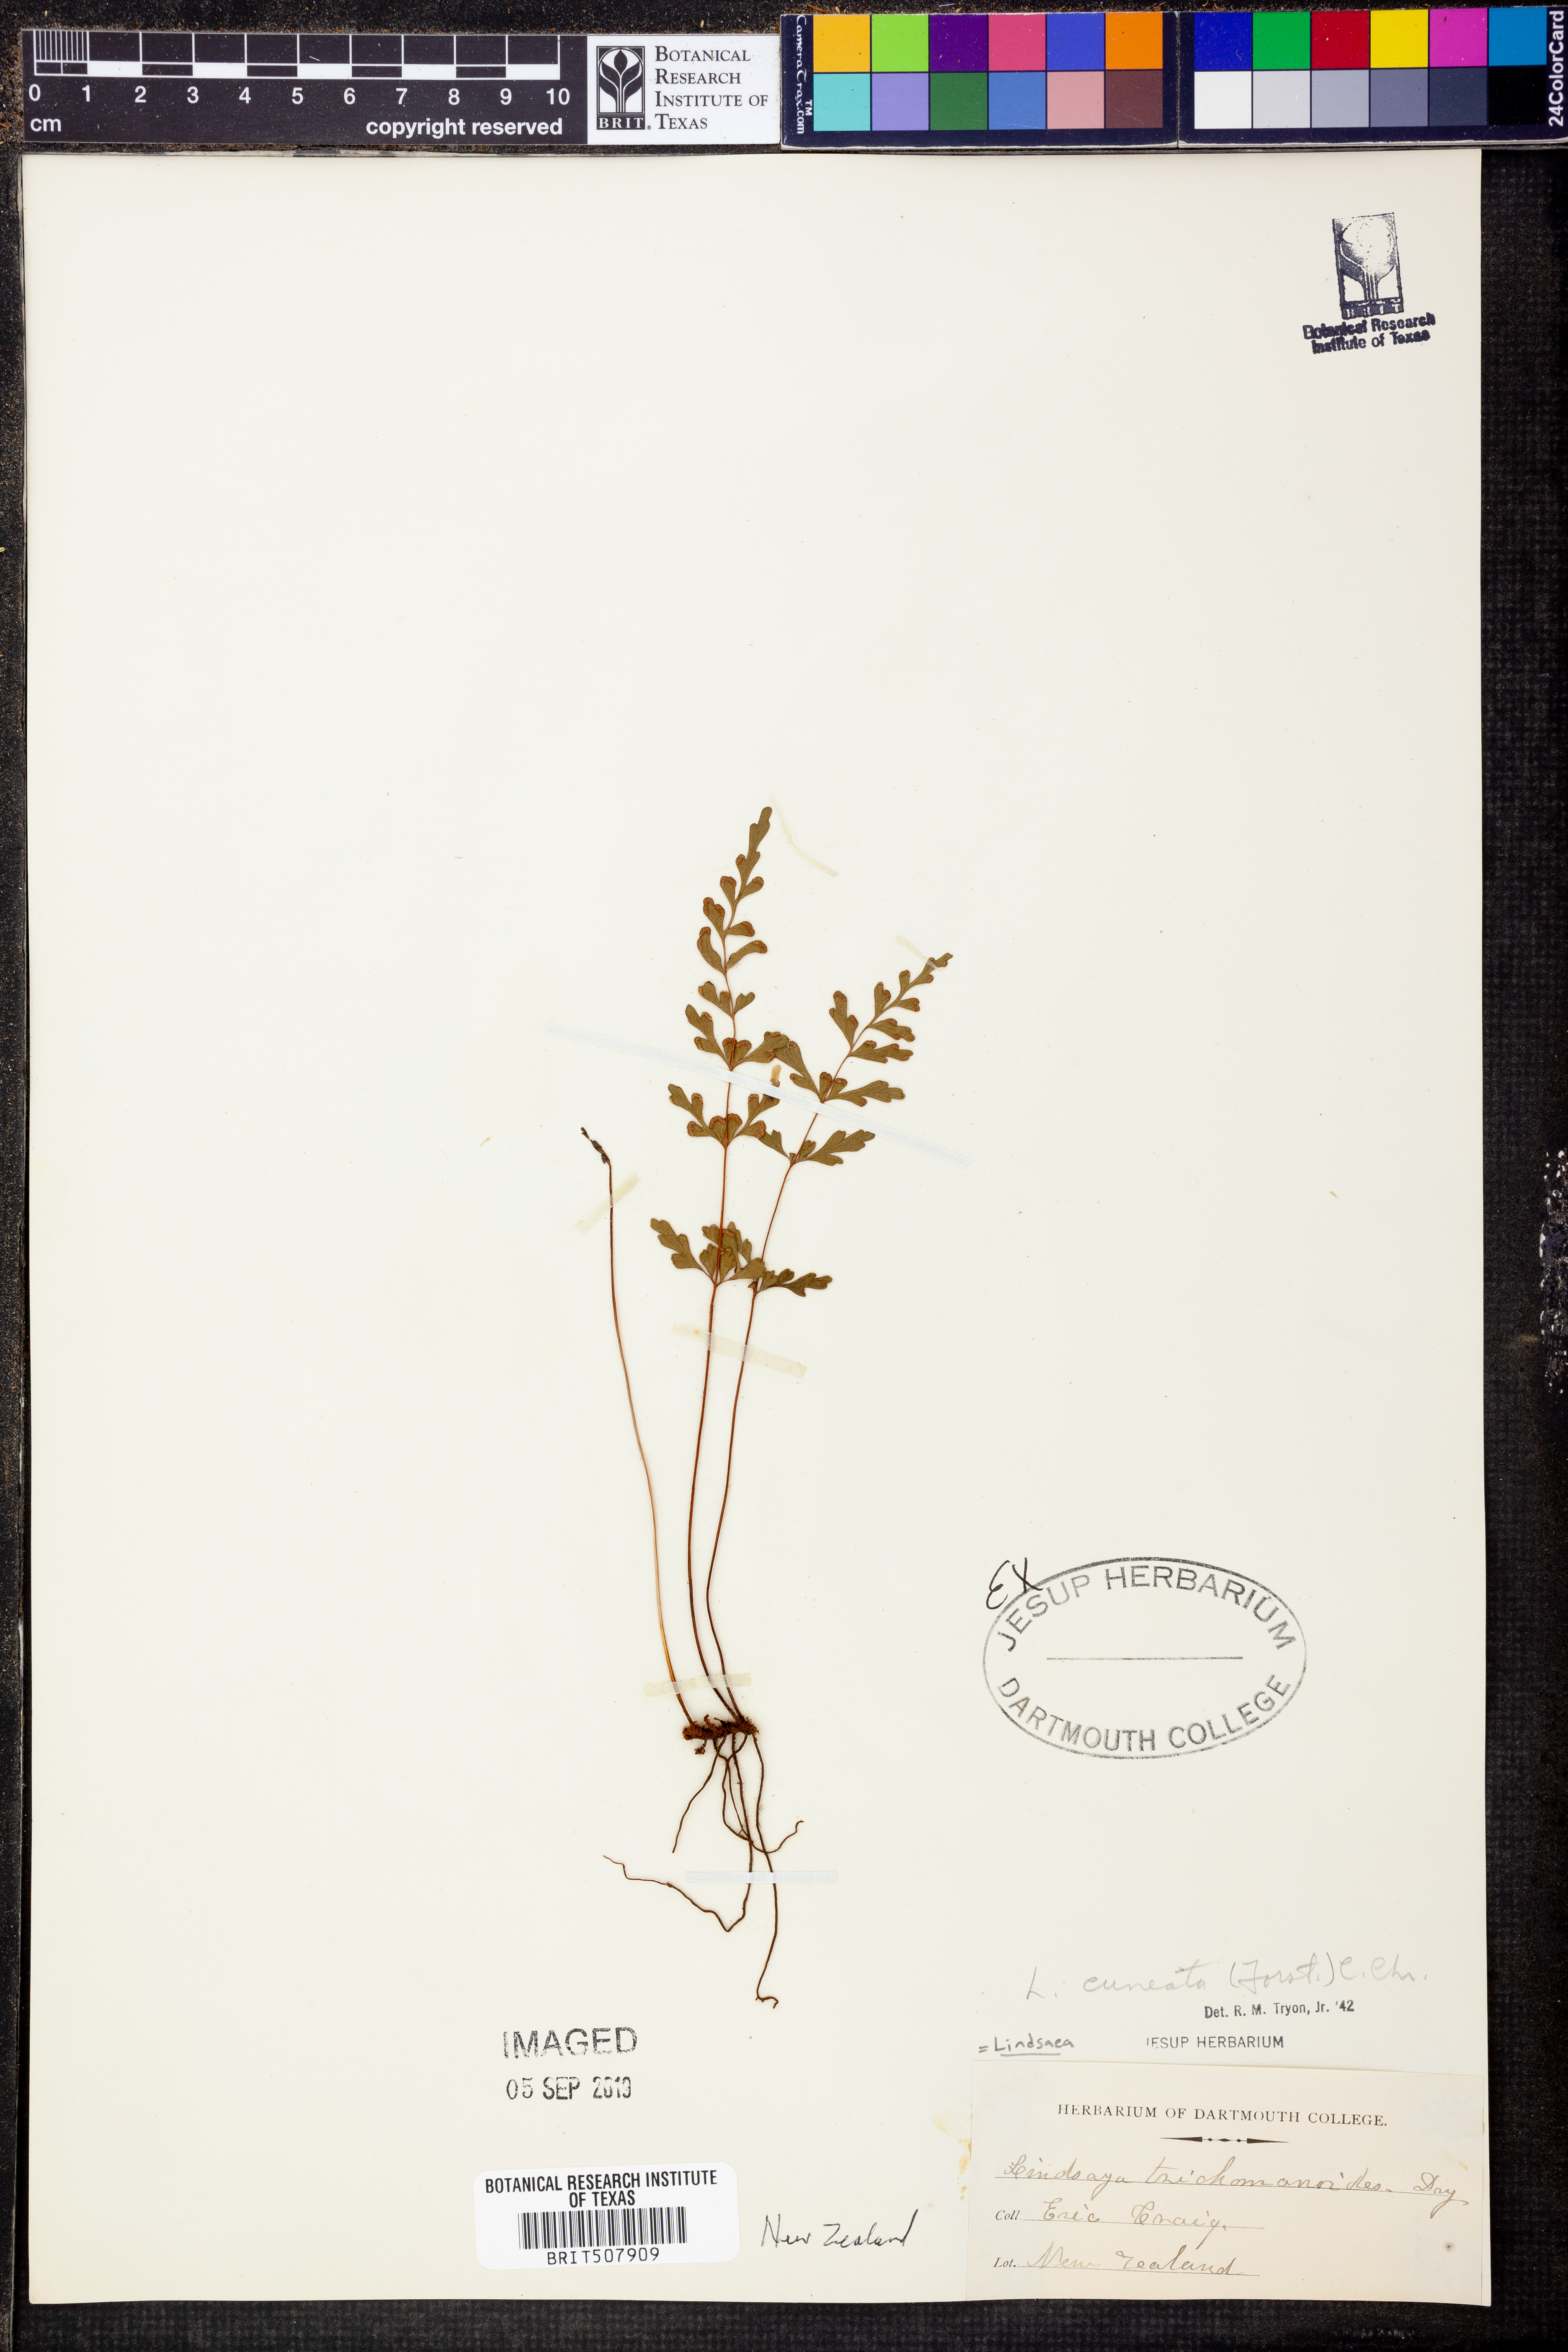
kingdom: Plantae
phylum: Tracheophyta
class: Polypodiopsida
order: Polypodiales
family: Lindsaeaceae
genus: Lindsaea
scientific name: Lindsaea trichomanoides
